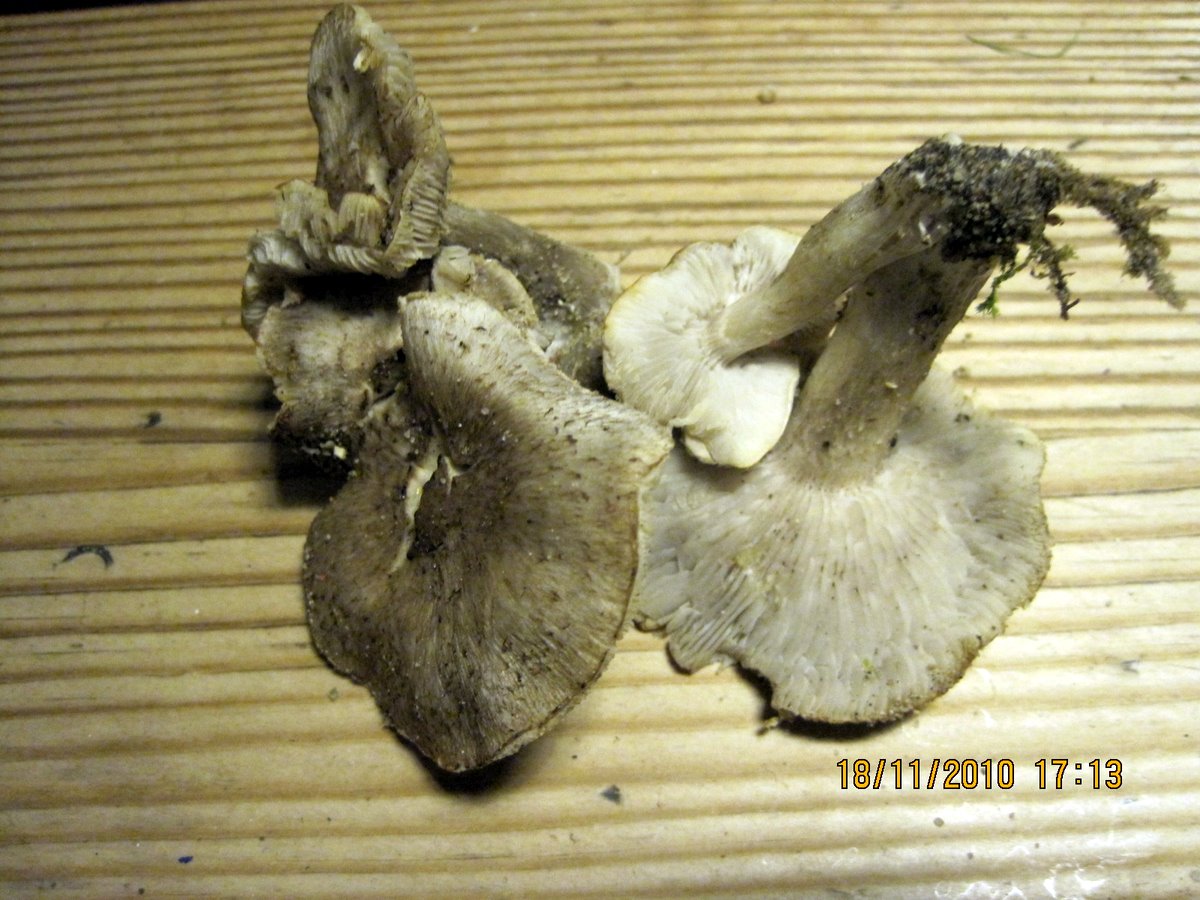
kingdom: Fungi
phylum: Basidiomycota
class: Agaricomycetes
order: Agaricales
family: Tricholomataceae
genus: Tricholoma
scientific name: Tricholoma scalpturatum
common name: gulplettet ridderhat
